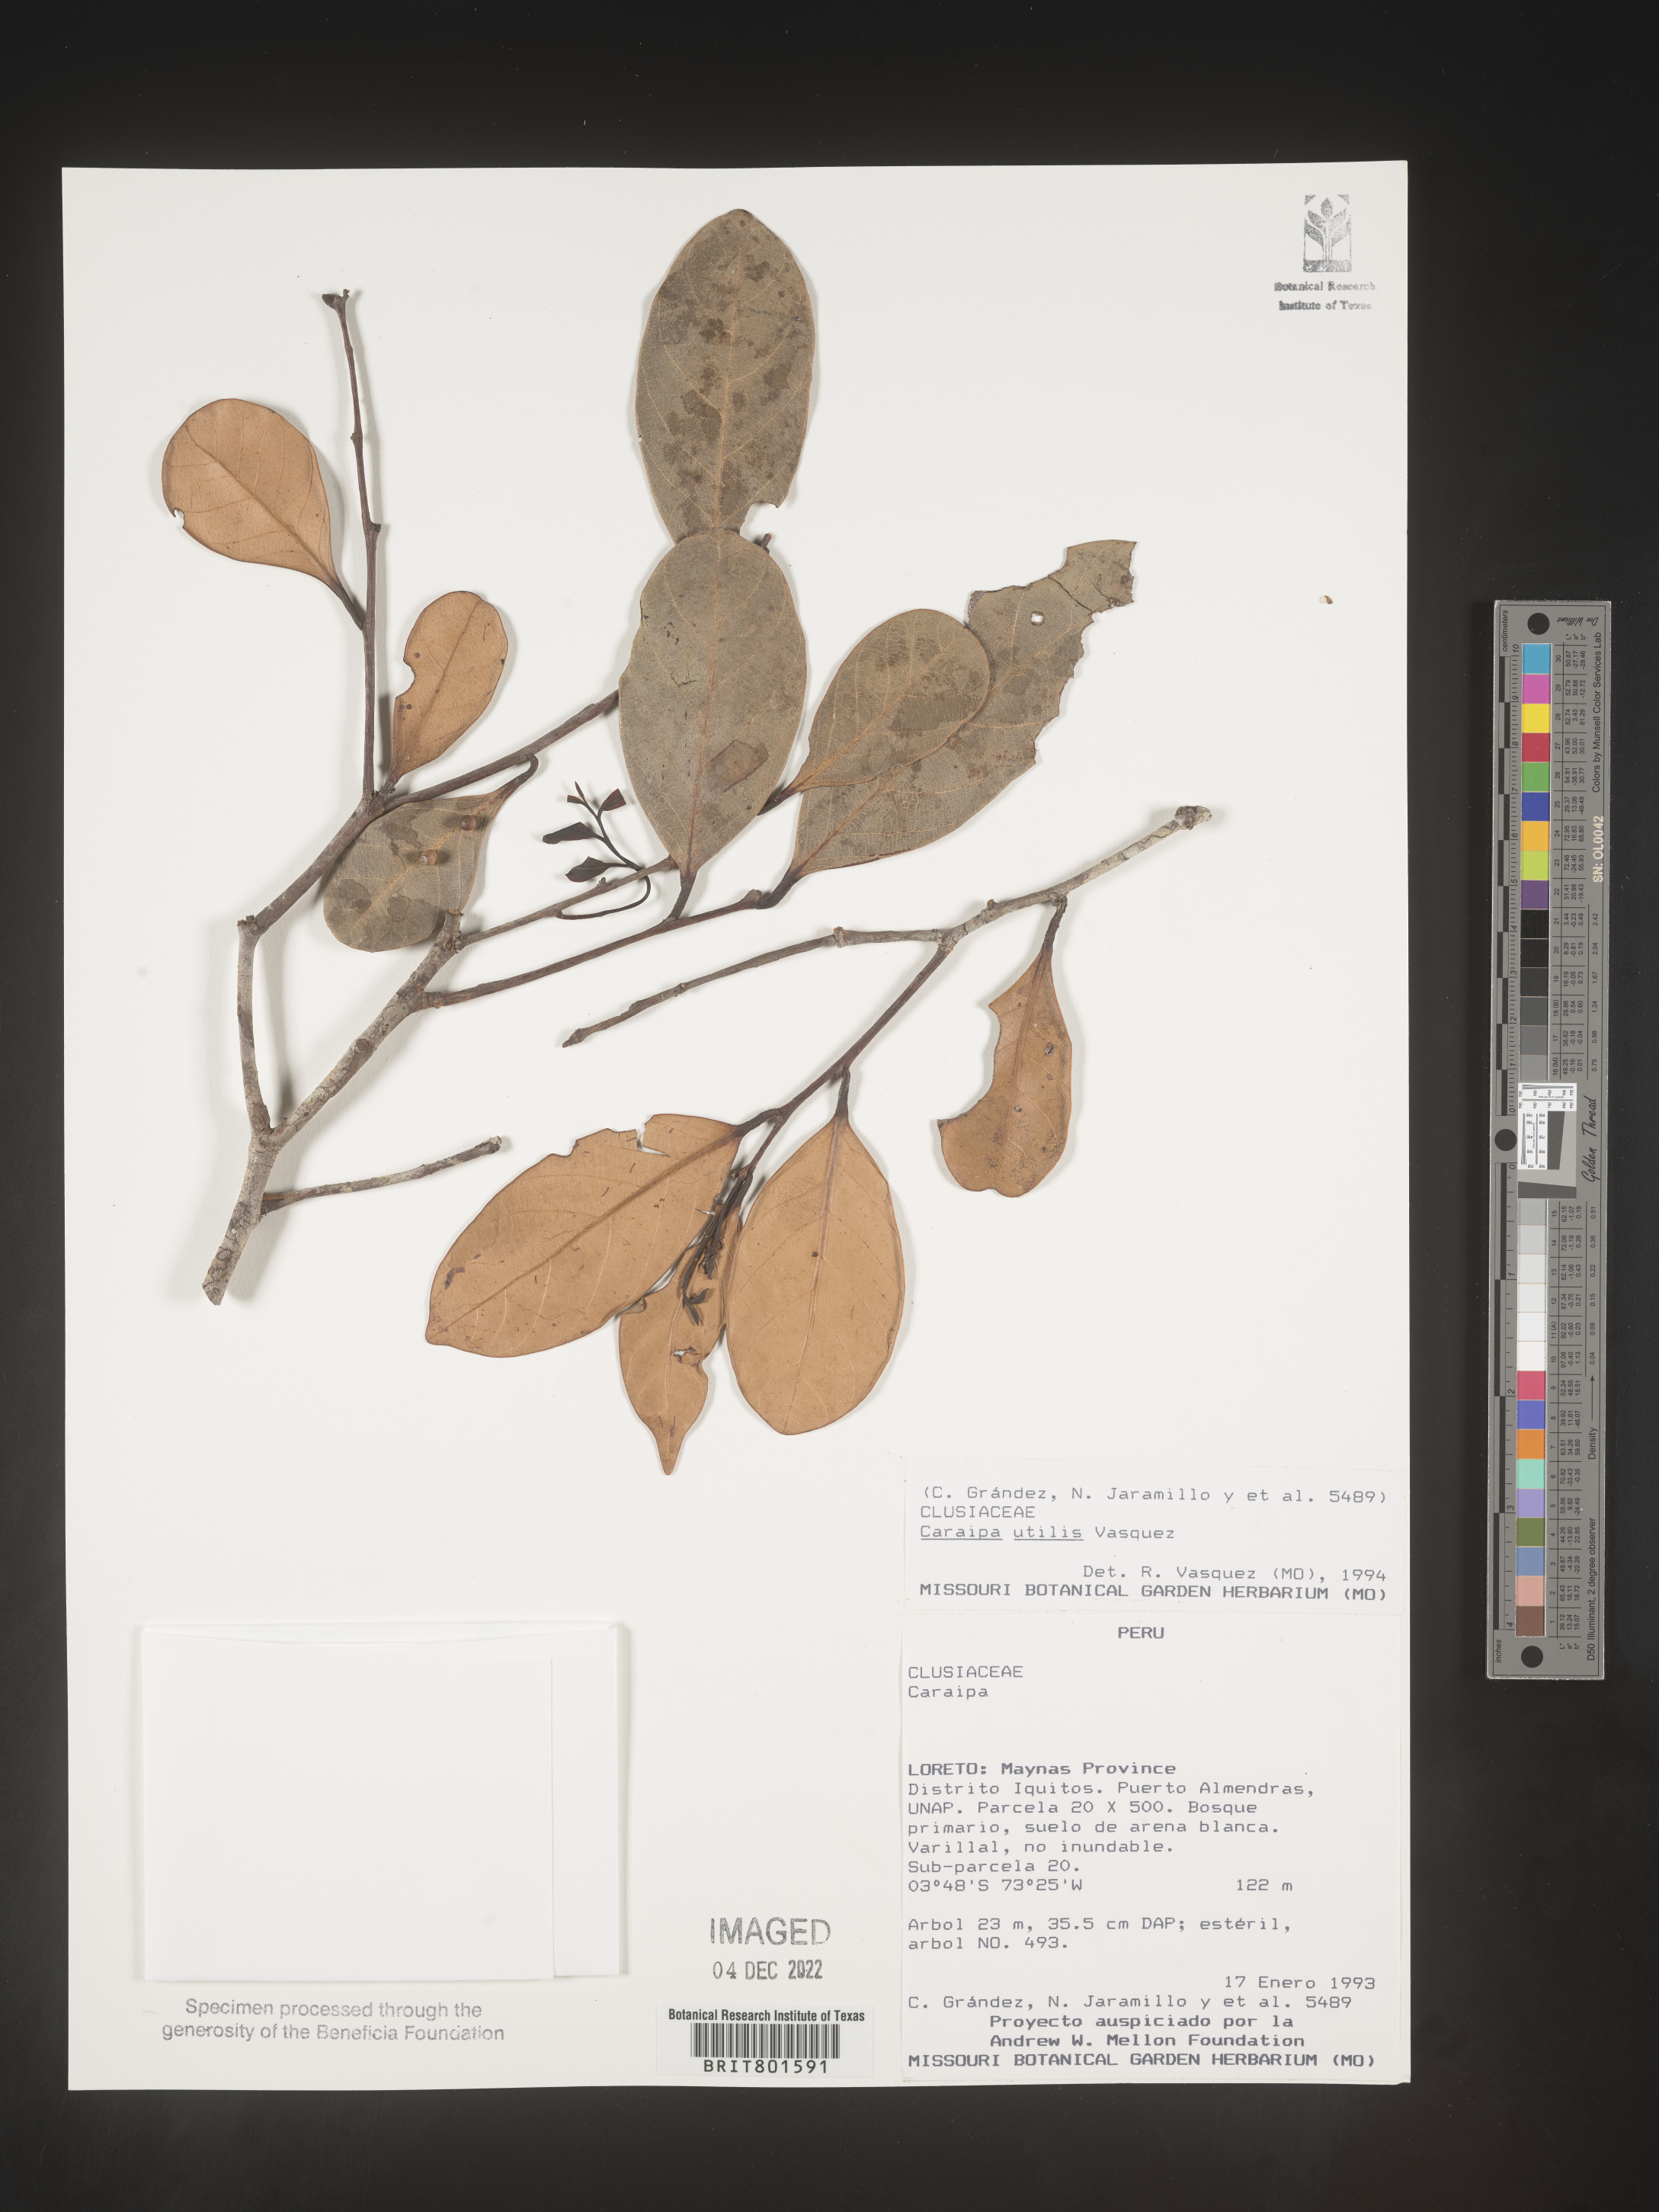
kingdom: Plantae
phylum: Tracheophyta
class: Magnoliopsida
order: Malpighiales
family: Calophyllaceae
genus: Caraipa
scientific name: Caraipa utilis
